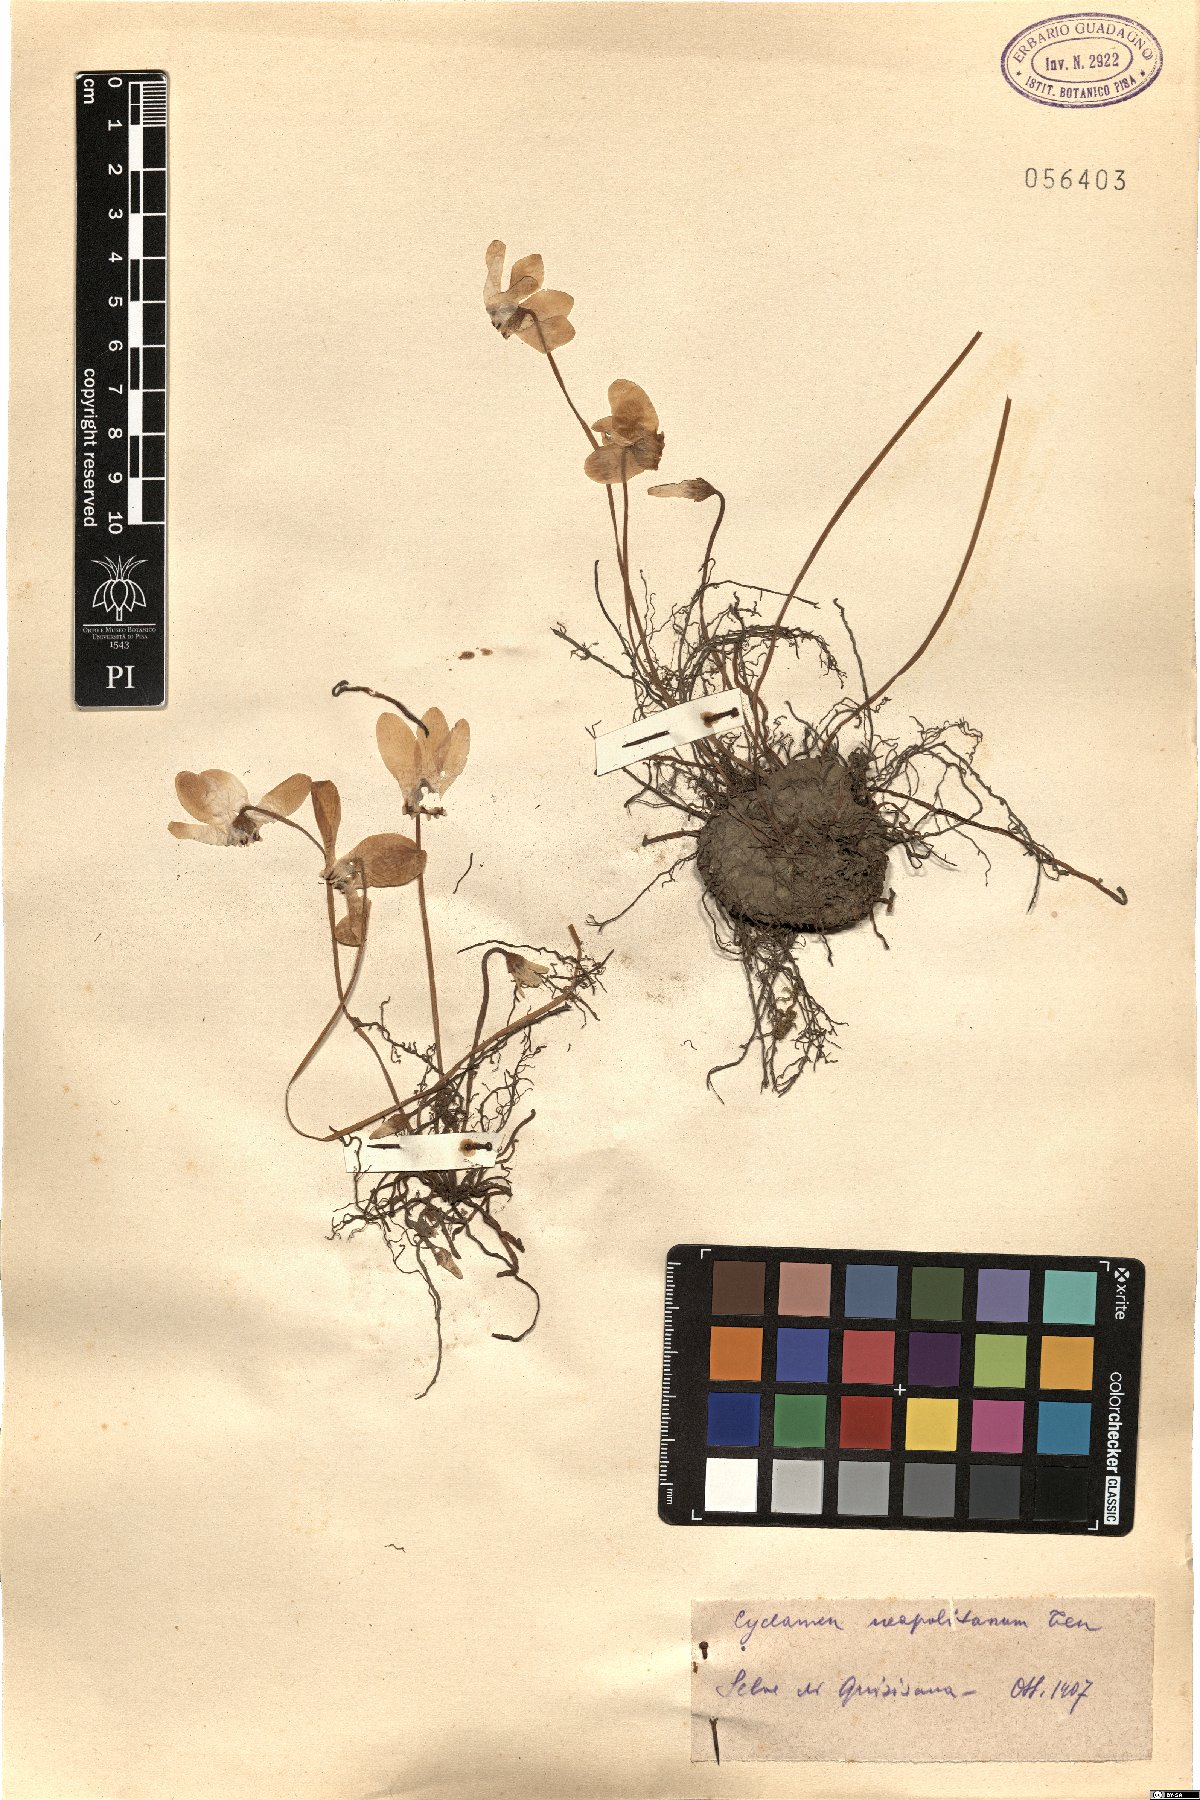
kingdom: Plantae
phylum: Tracheophyta
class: Magnoliopsida
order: Ericales
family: Primulaceae
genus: Cyclamen
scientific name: Cyclamen hederifolium
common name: Sowbread
